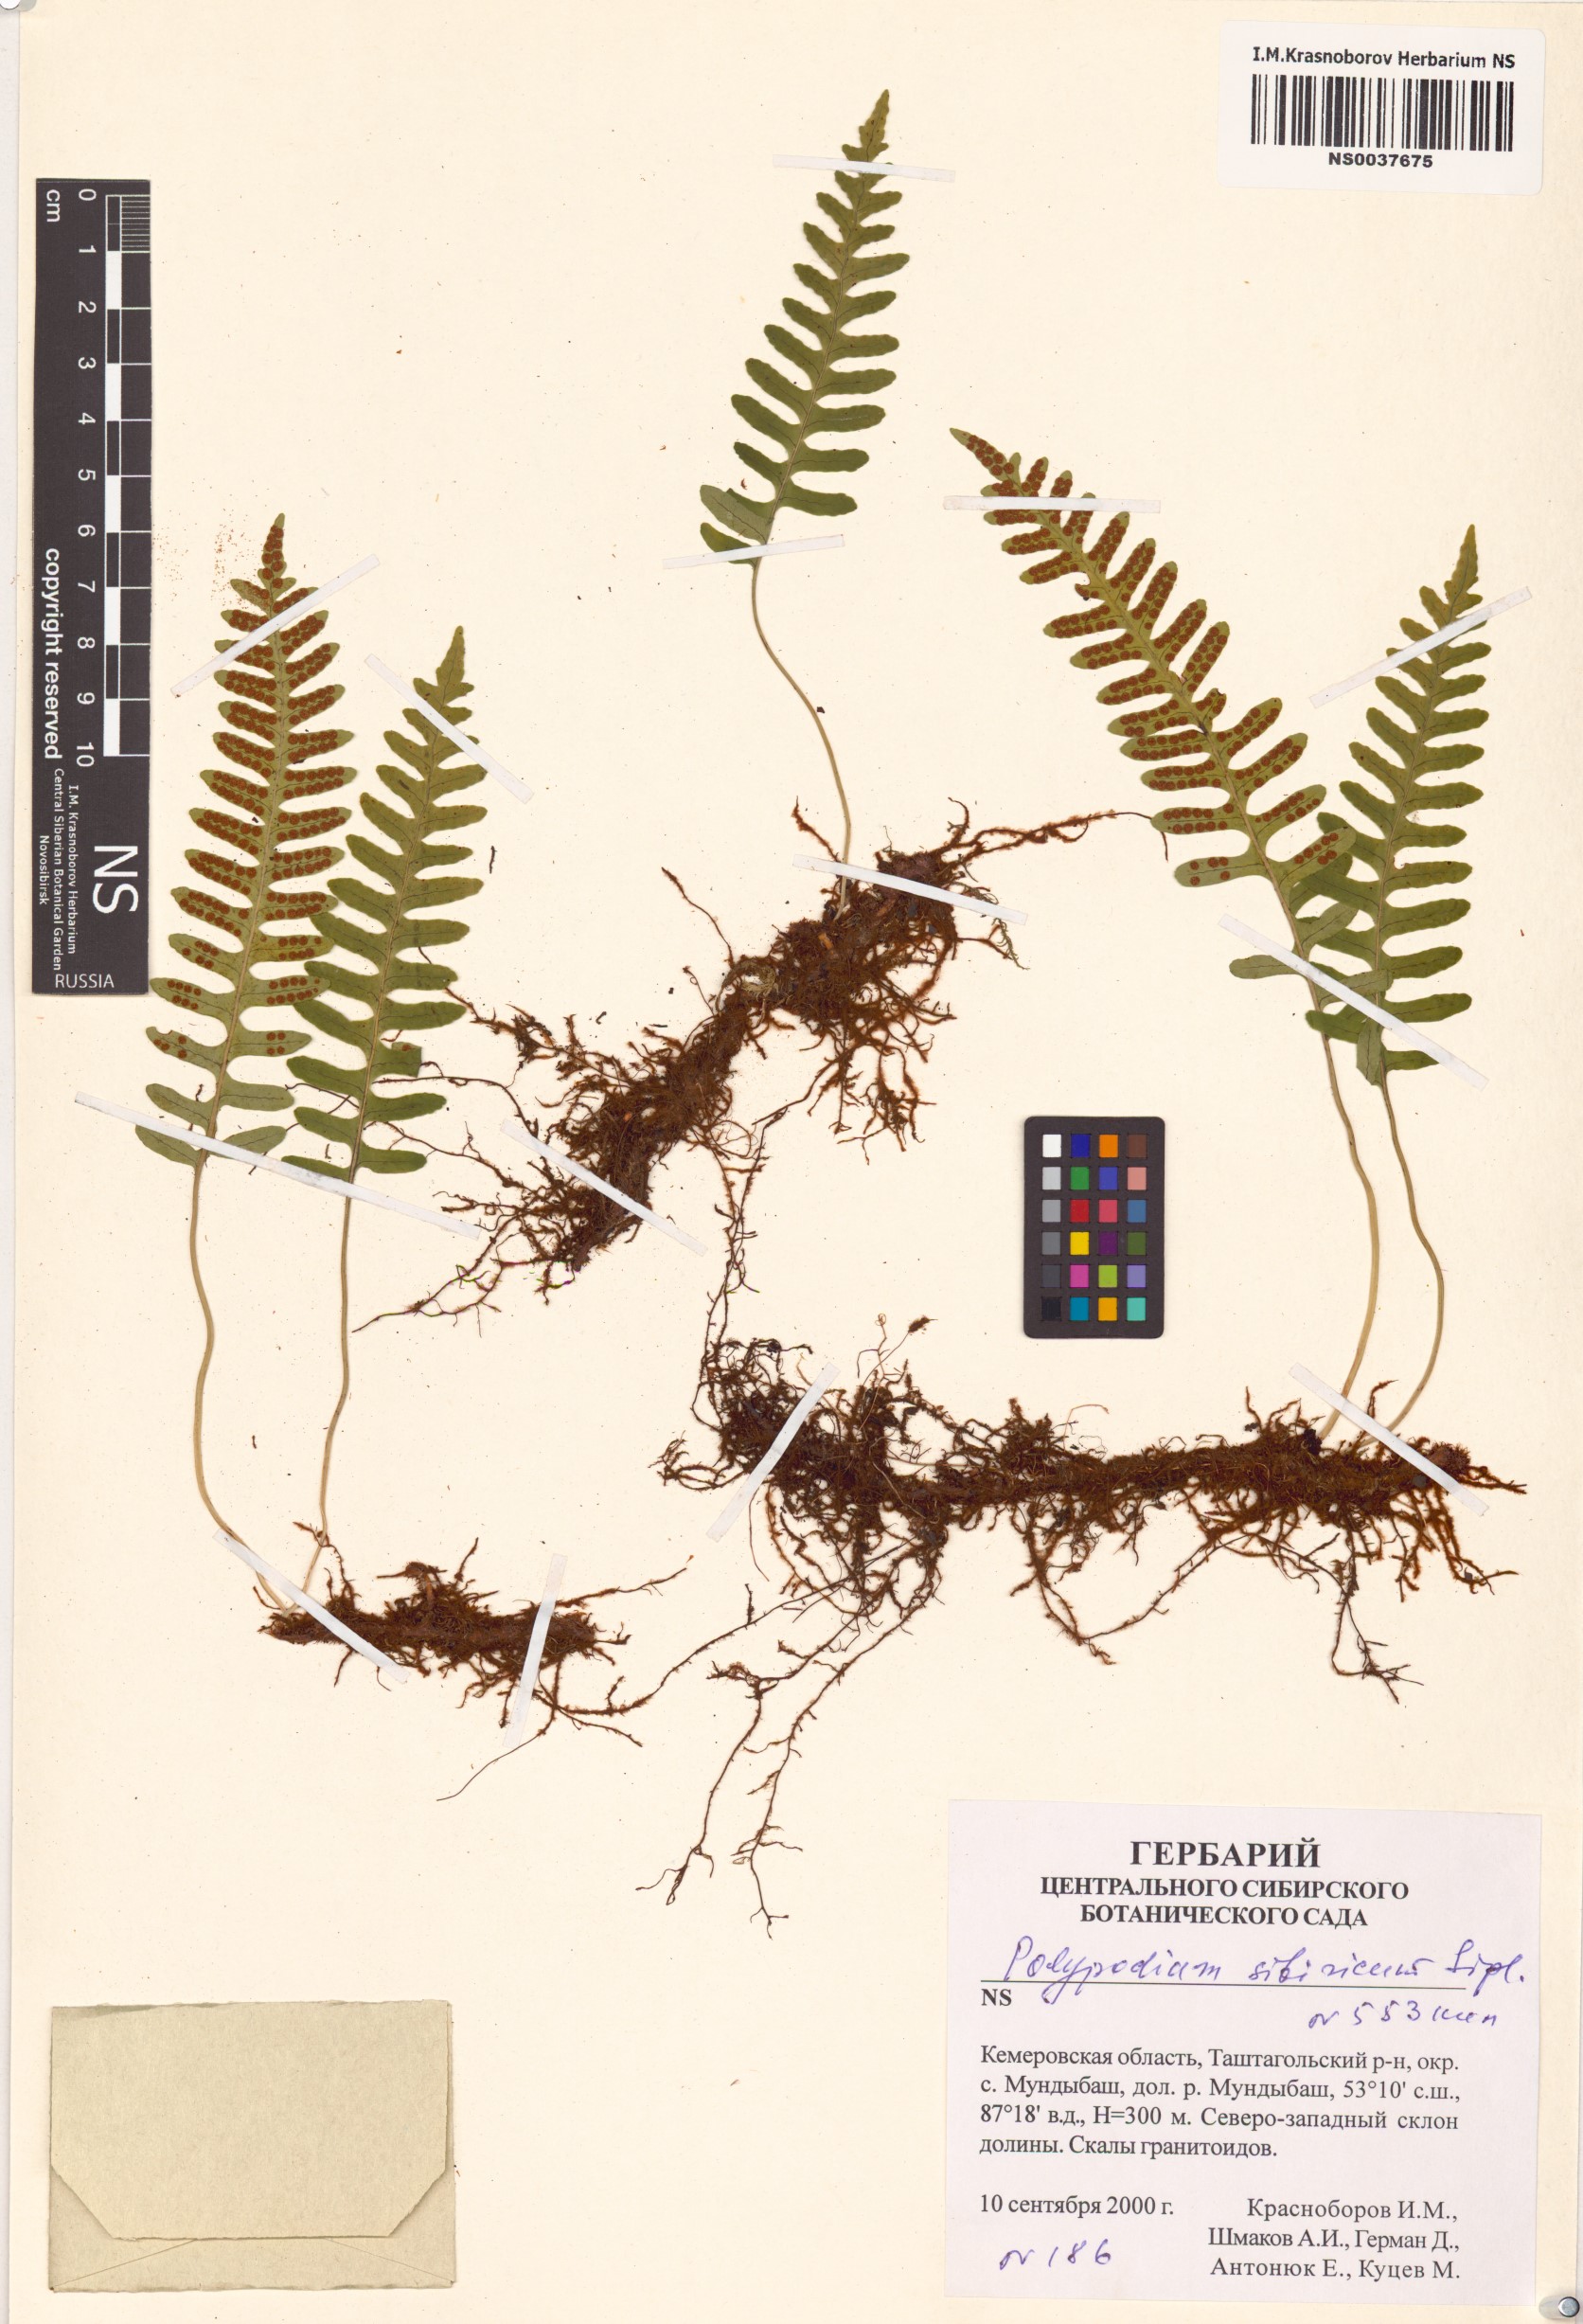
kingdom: Plantae
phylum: Tracheophyta
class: Polypodiopsida
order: Polypodiales
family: Polypodiaceae
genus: Polypodium
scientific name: Polypodium sibiricum
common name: Siberian polypody
